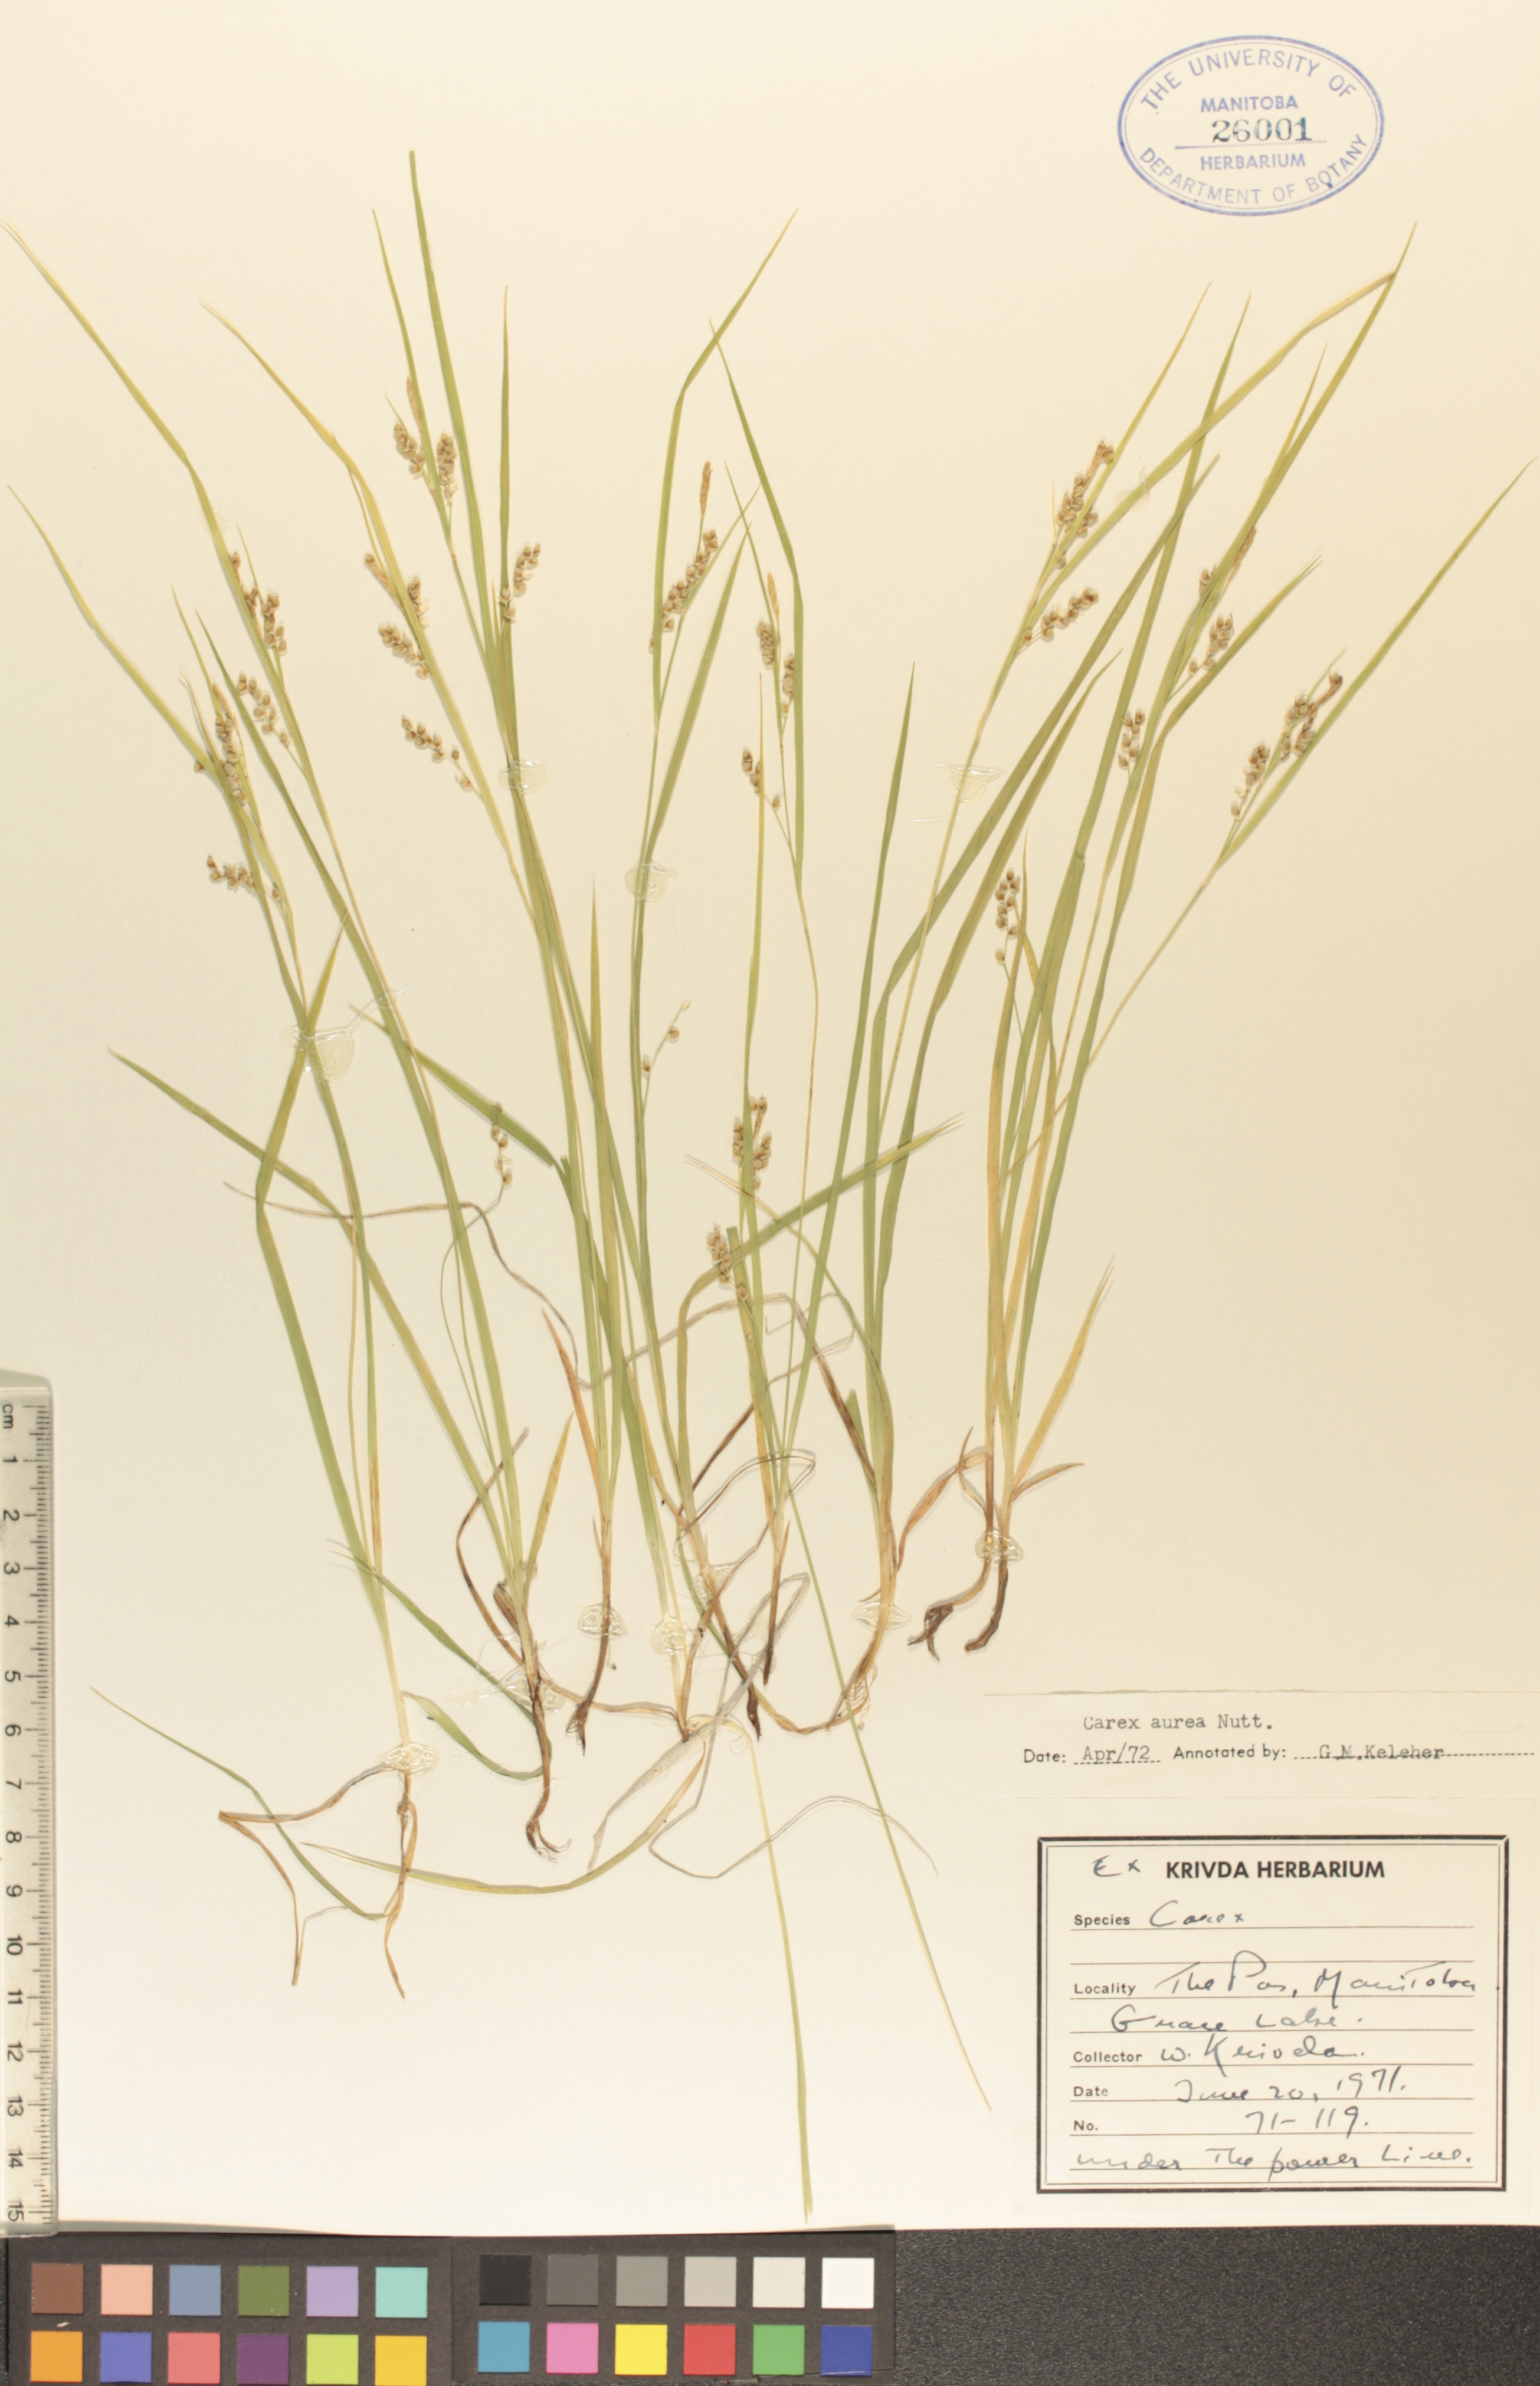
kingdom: Plantae
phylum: Tracheophyta
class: Liliopsida
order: Poales
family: Cyperaceae
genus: Carex
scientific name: Carex aurea
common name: Golden sedge
